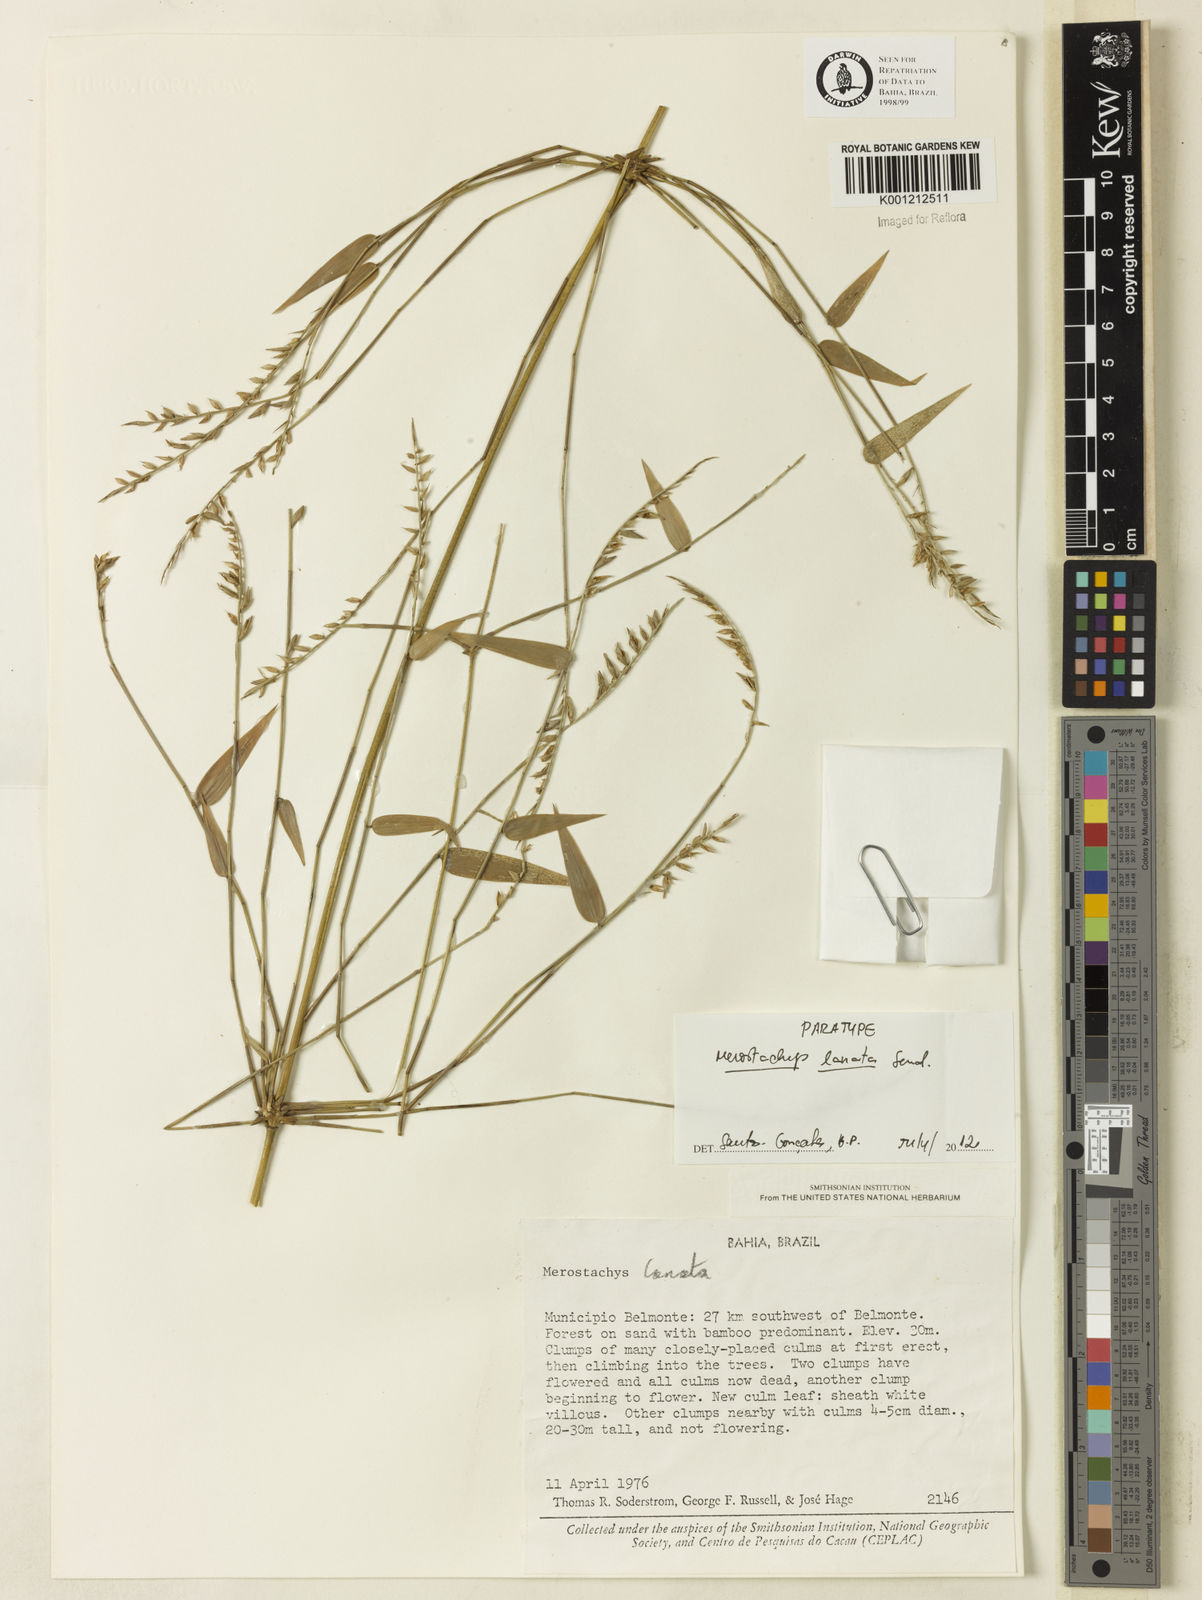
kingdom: Plantae
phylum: Tracheophyta
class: Liliopsida
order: Poales
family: Poaceae
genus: Merostachys
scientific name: Merostachys lanata
